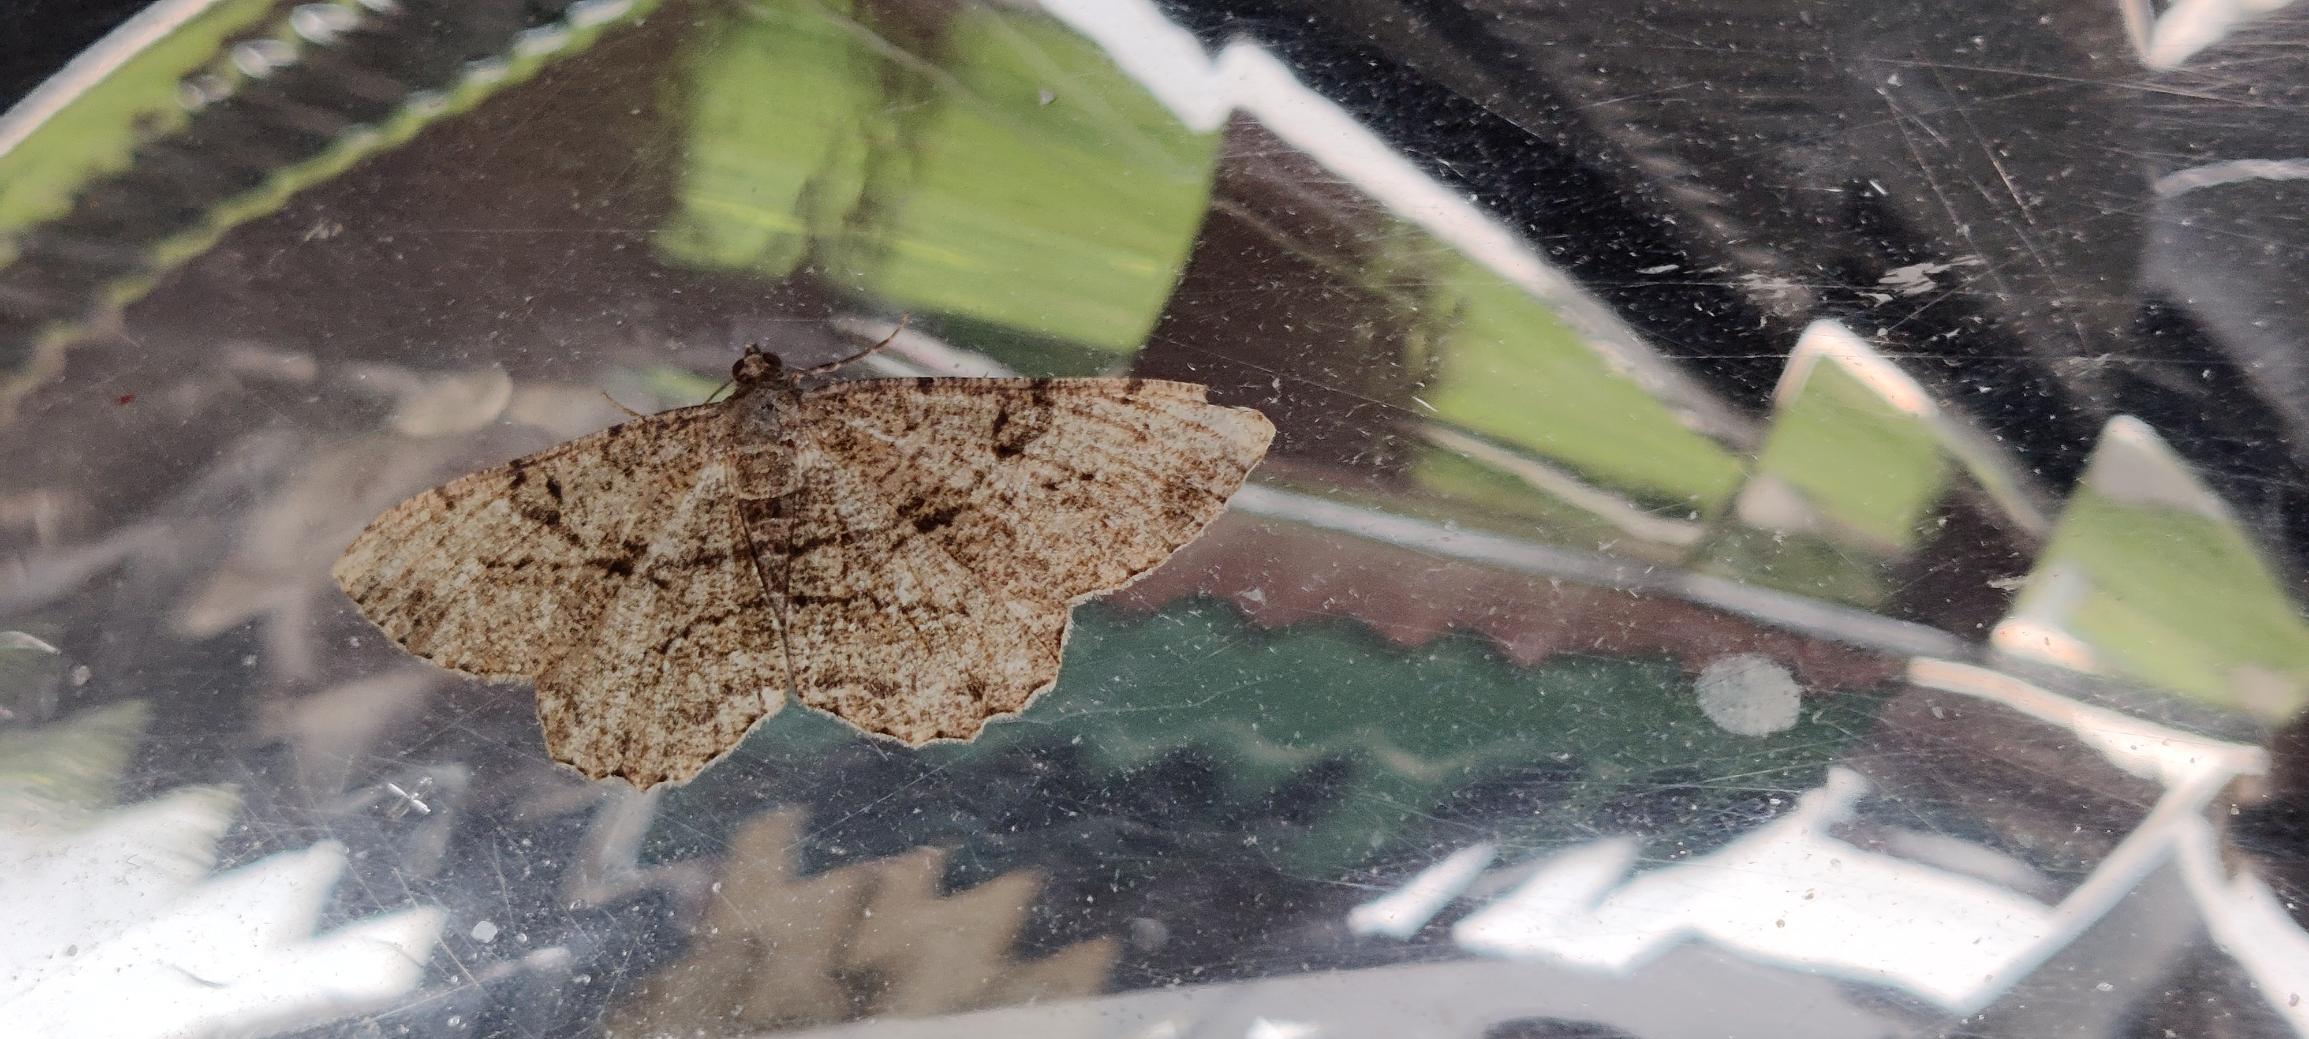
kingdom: Animalia
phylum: Arthropoda
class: Insecta
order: Lepidoptera
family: Geometridae
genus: Peribatodes
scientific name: Peribatodes rhomboidaria
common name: Frugttræ-barkmåler
